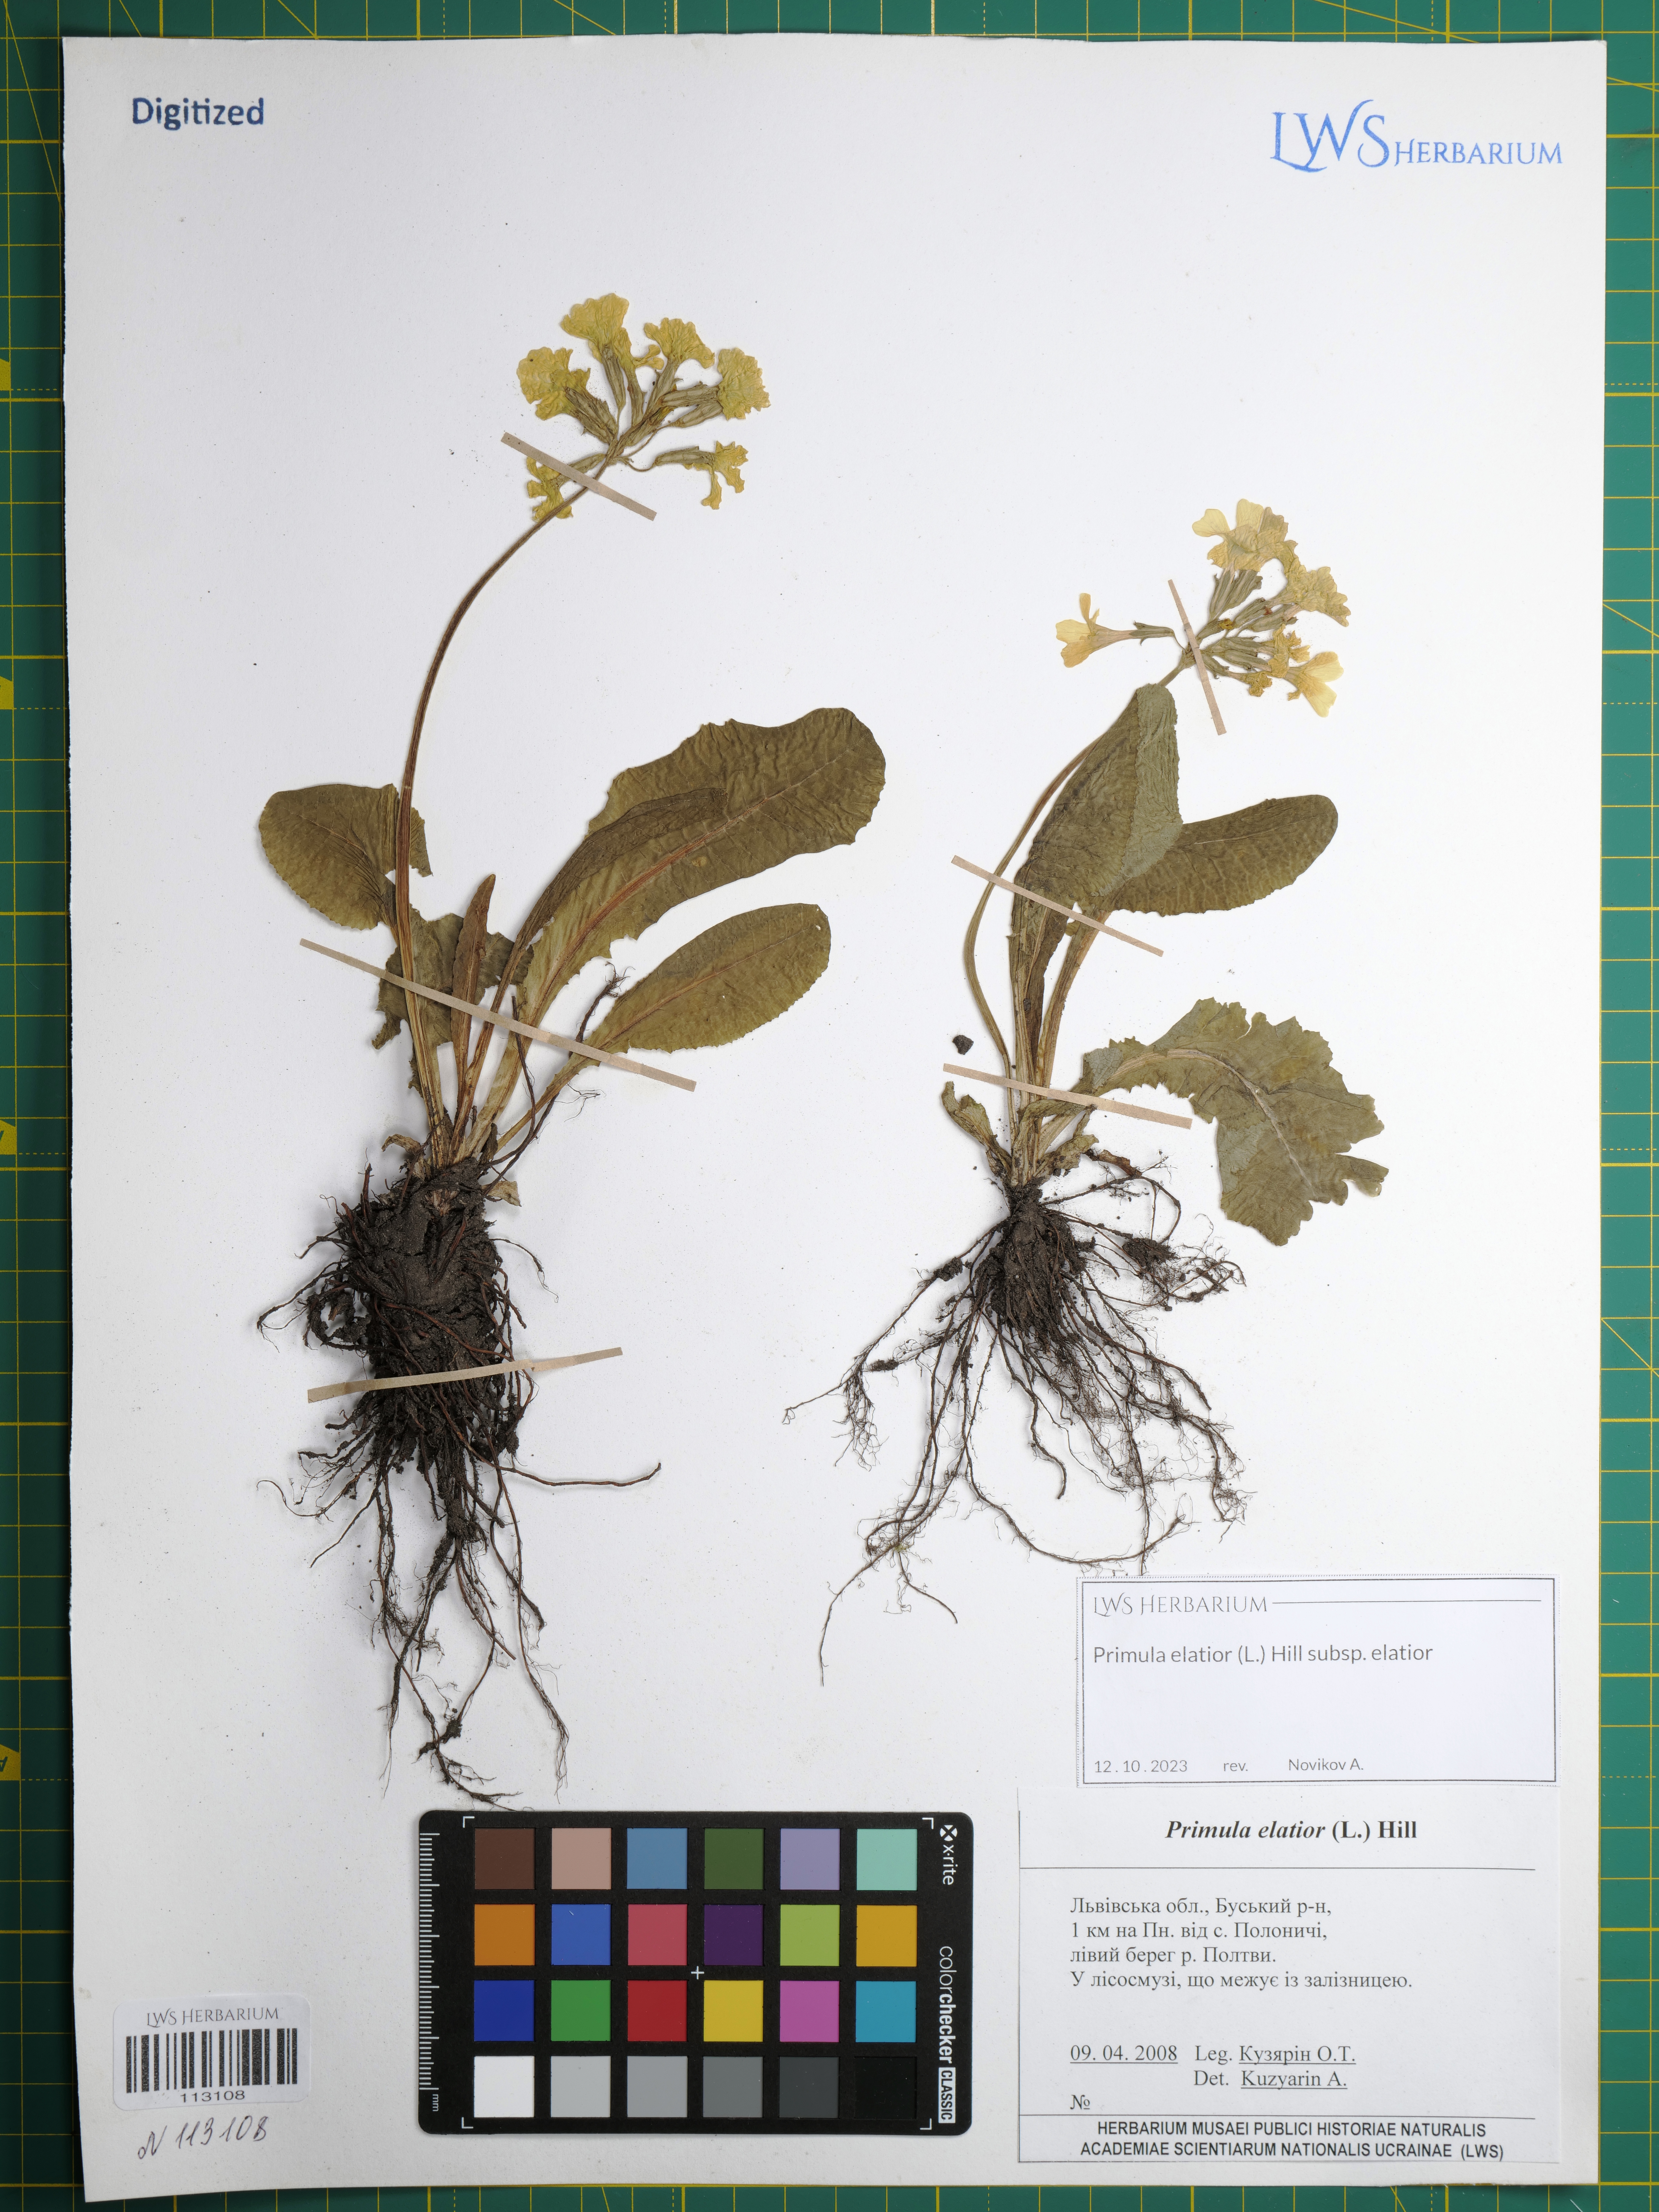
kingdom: Plantae
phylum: Tracheophyta
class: Magnoliopsida
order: Ericales
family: Primulaceae
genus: Primula
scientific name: Primula elatior
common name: Oxlip
